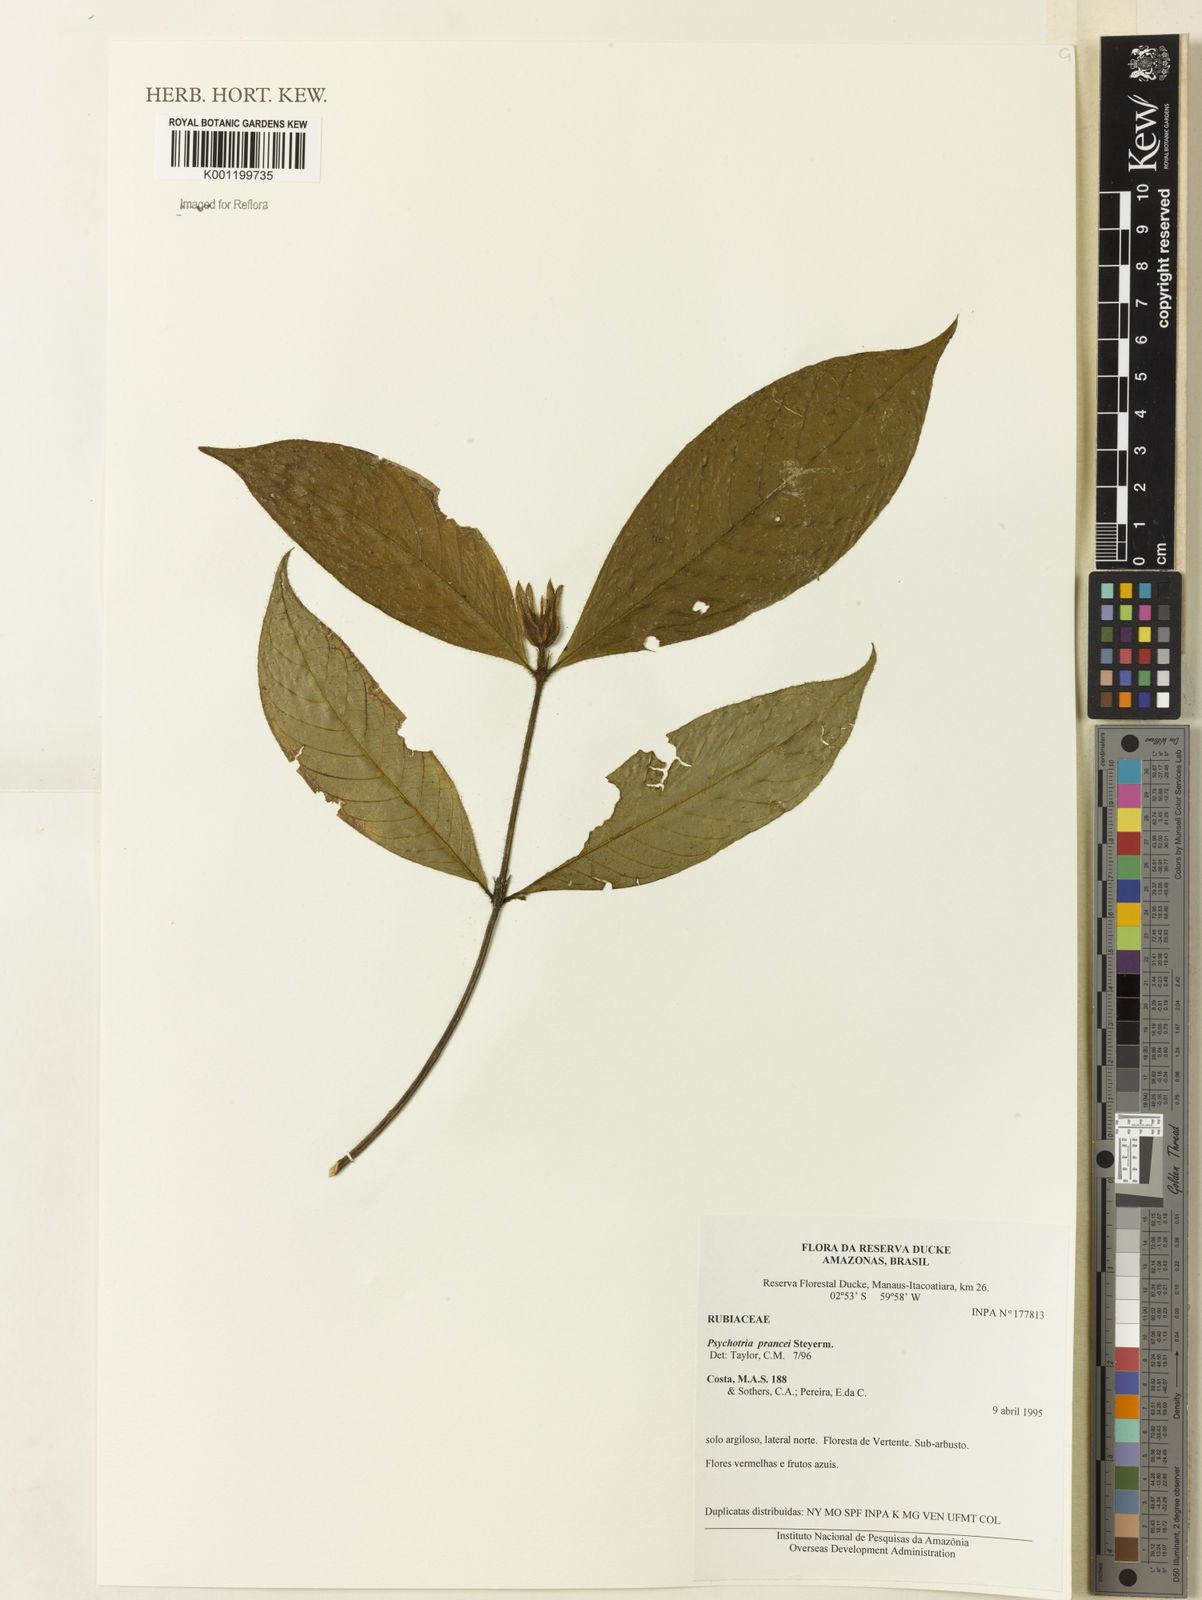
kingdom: Plantae
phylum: Tracheophyta
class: Magnoliopsida
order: Gentianales
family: Rubiaceae
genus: Palicourea
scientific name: Palicourea prancei
